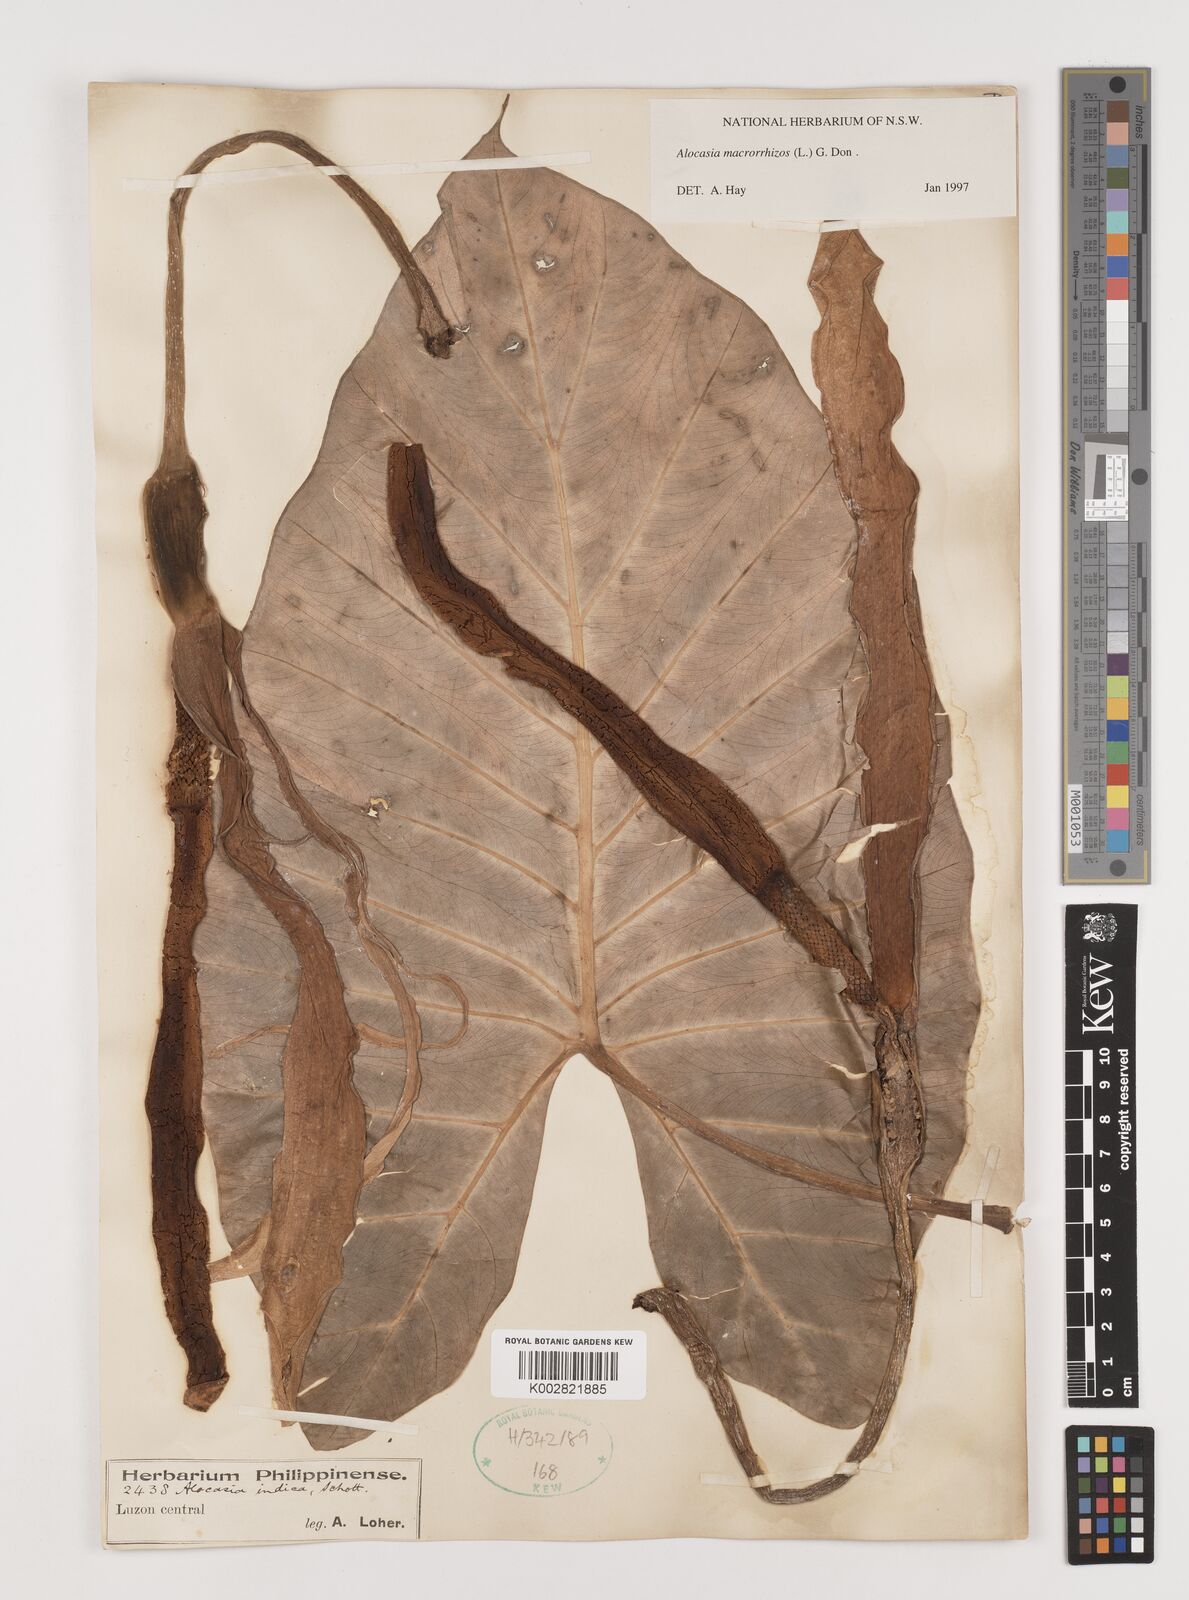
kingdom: Plantae
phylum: Tracheophyta
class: Liliopsida
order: Alismatales
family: Araceae
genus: Alocasia
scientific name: Alocasia macrorrhizos
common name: Giant taro
